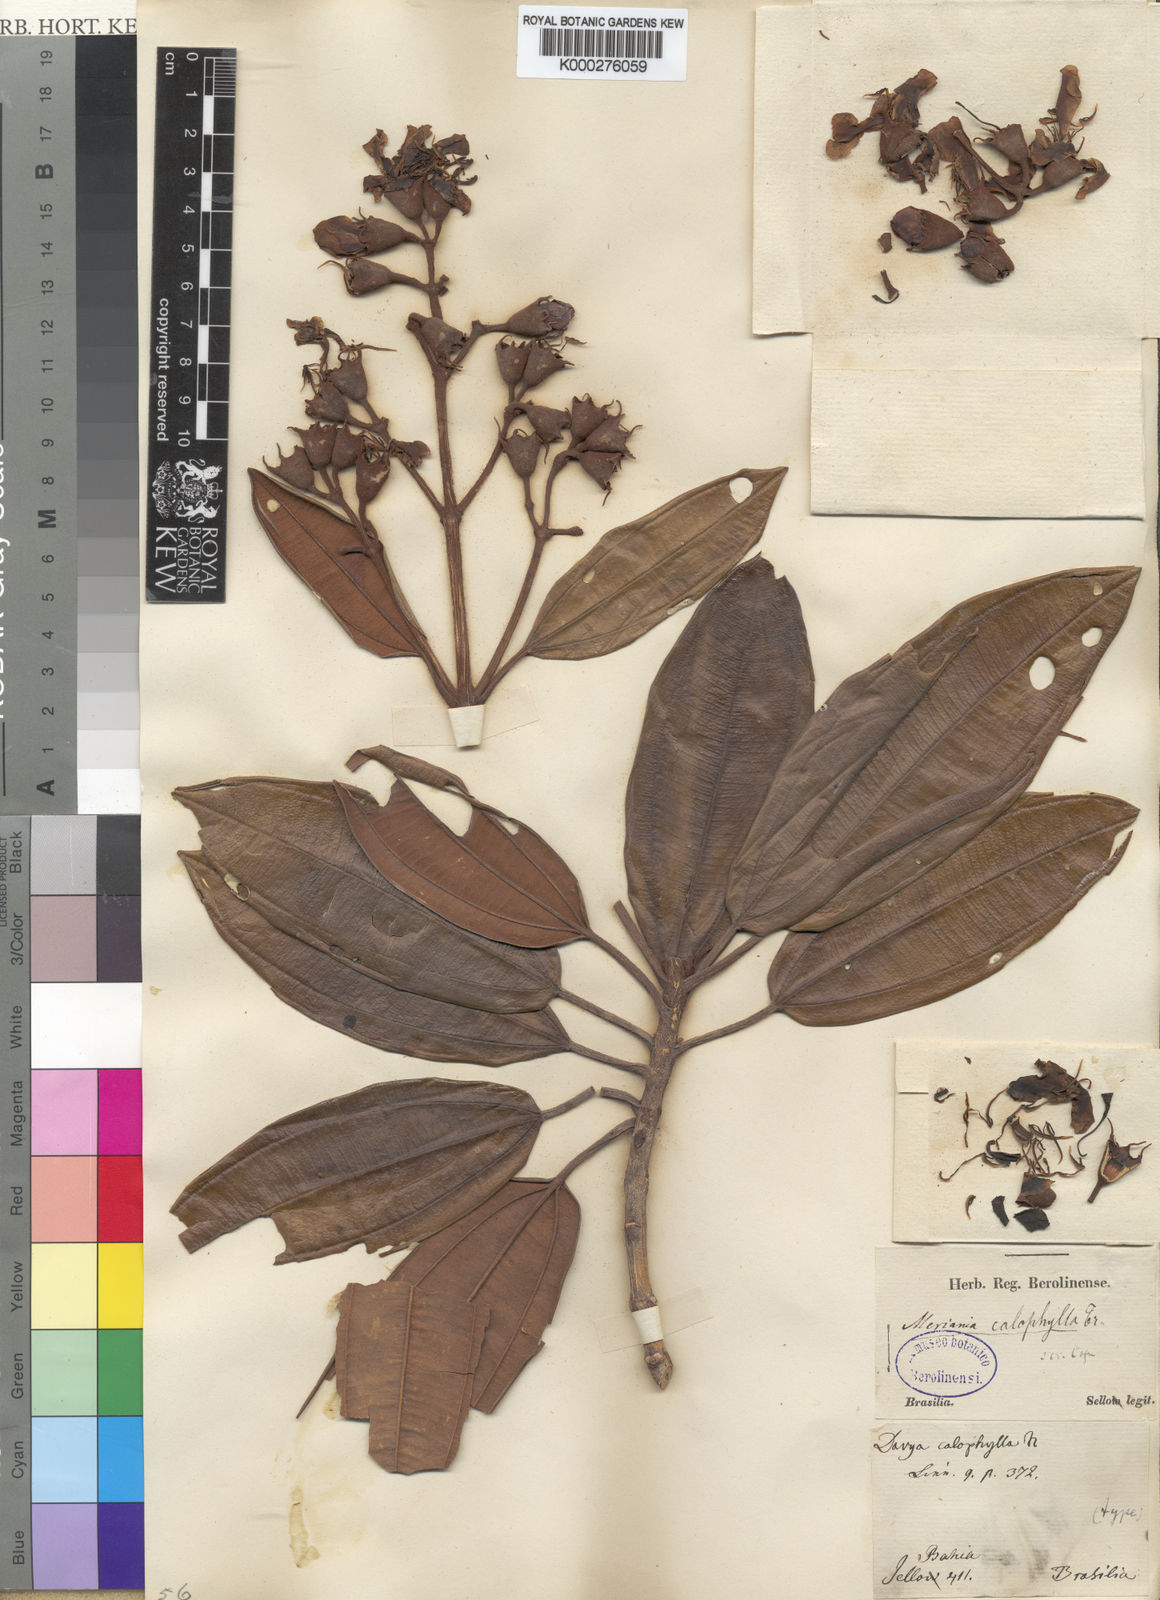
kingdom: Plantae
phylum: Tracheophyta
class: Magnoliopsida
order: Myrtales
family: Melastomataceae
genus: Meriania
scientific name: Meriania calophylla
